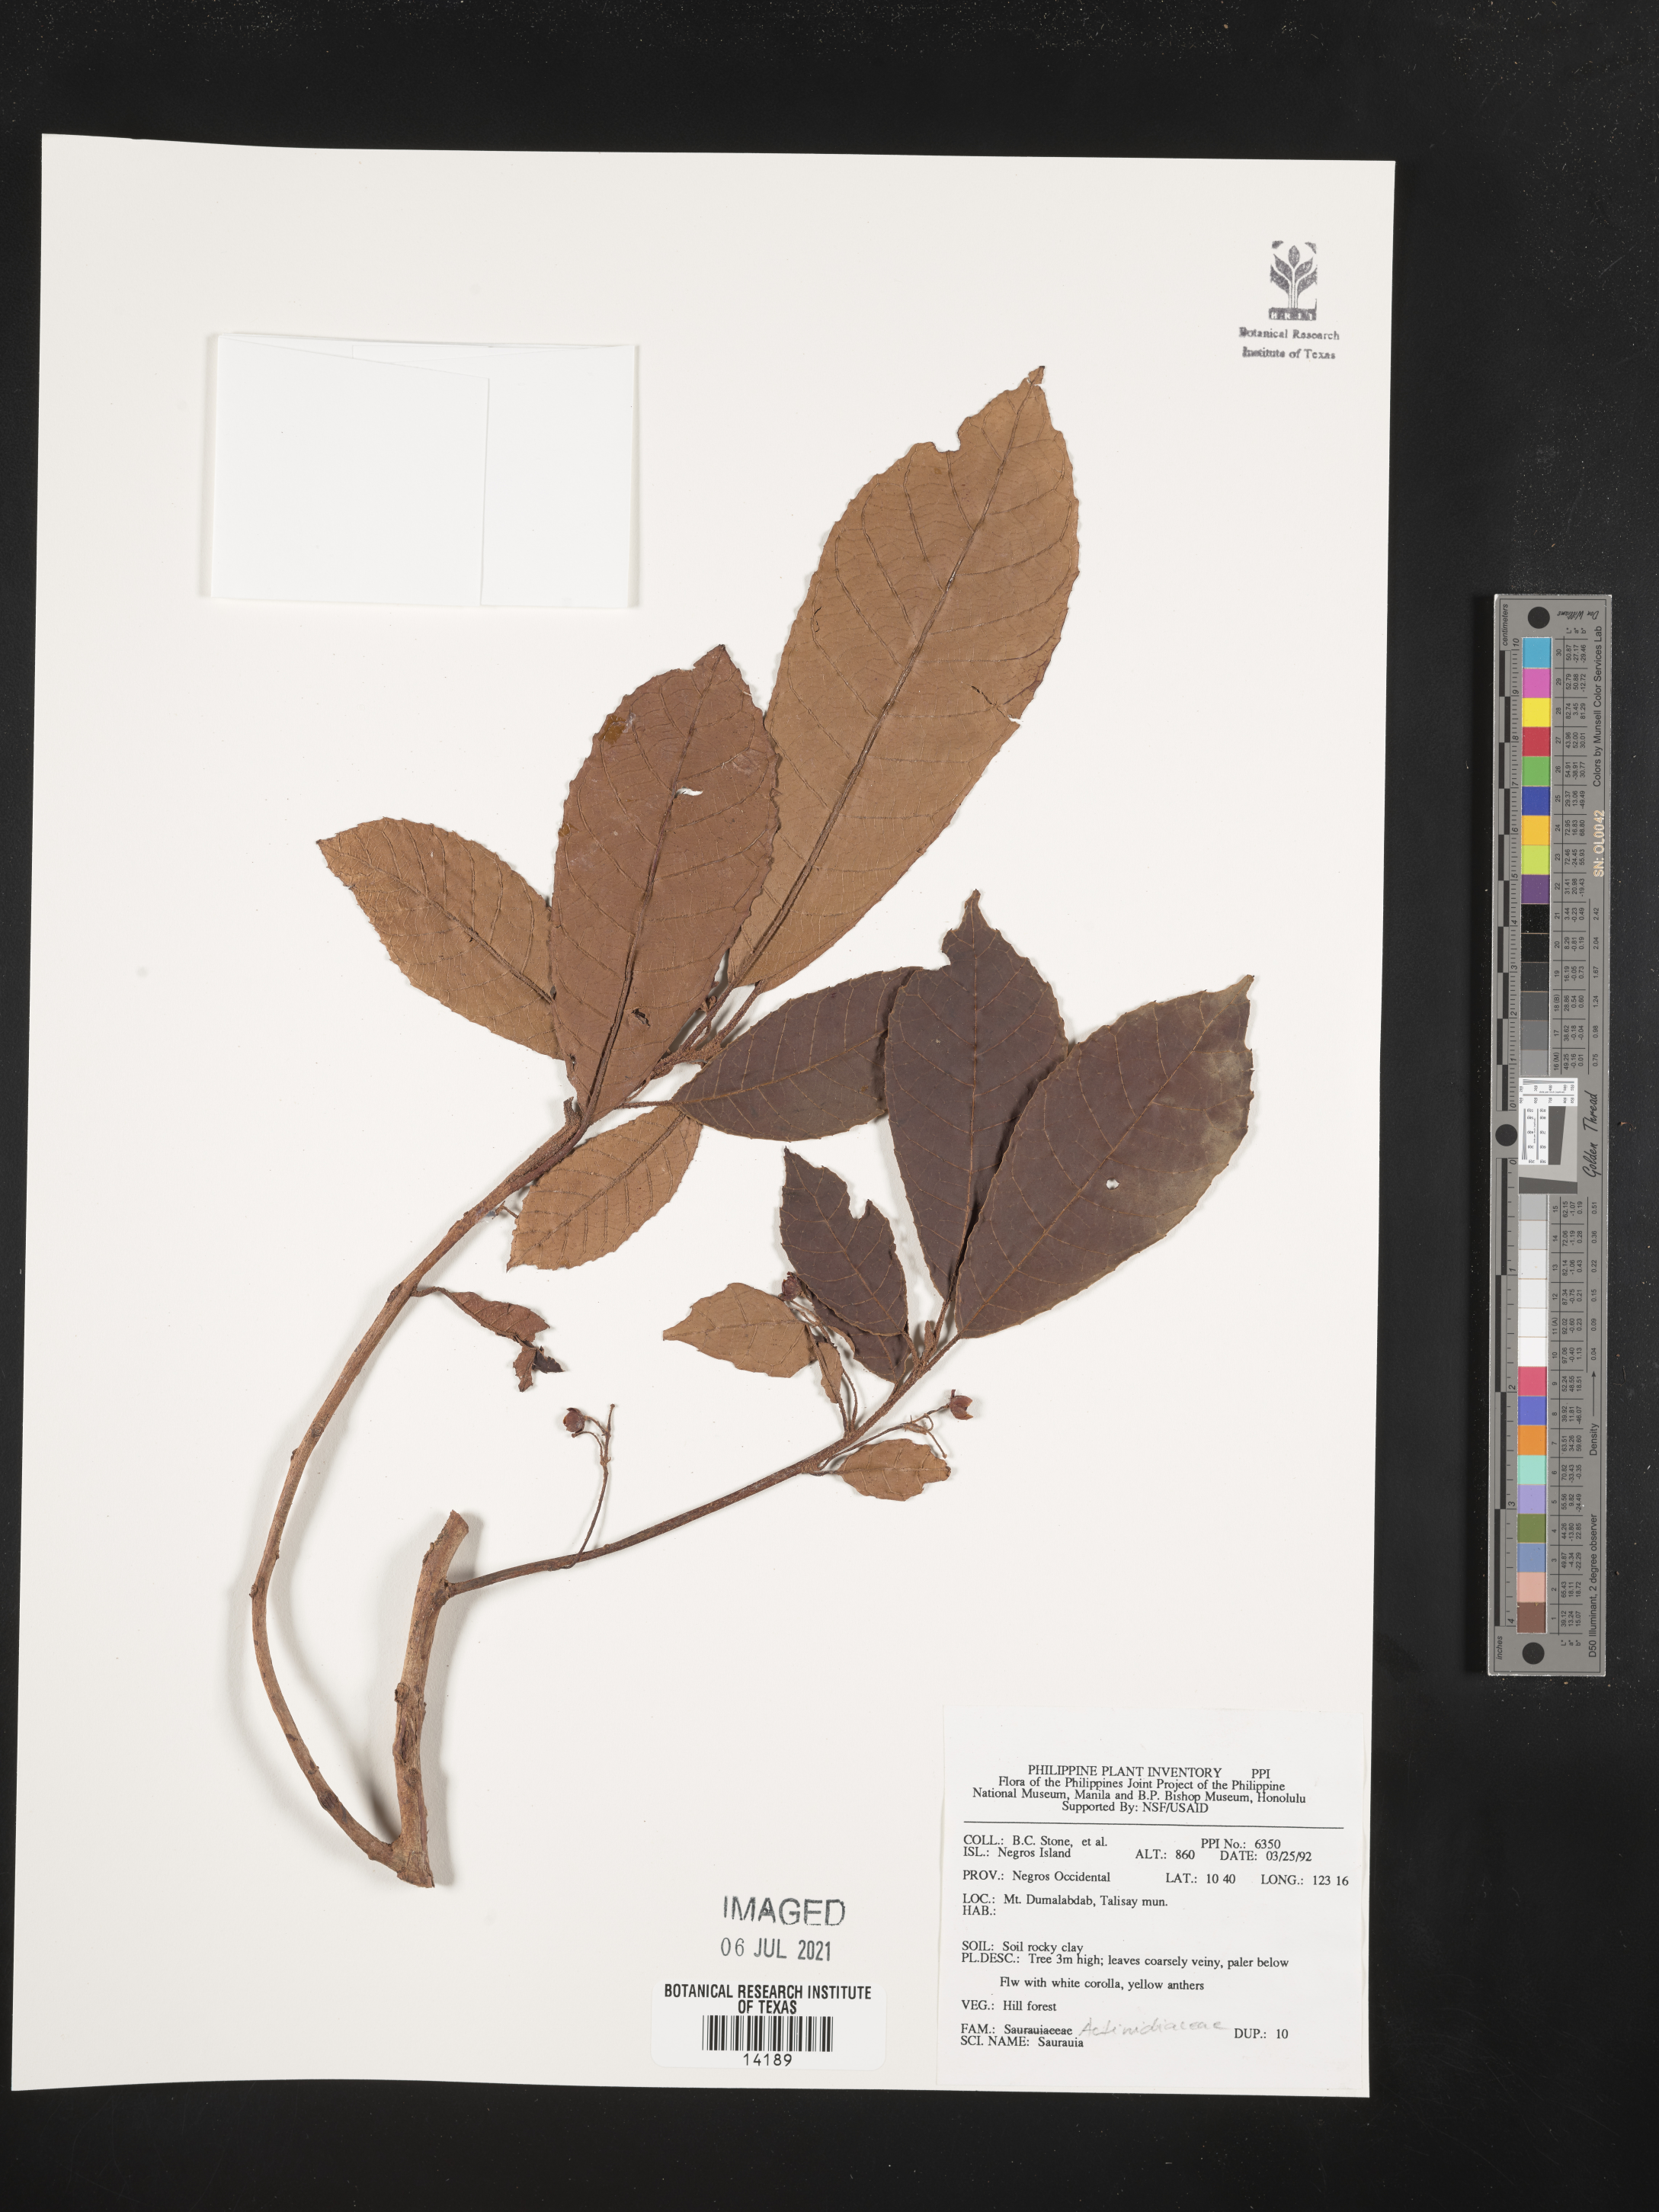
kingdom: Plantae
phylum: Tracheophyta
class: Magnoliopsida
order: Ericales
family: Actinidiaceae
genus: Saurauia
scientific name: Saurauia
